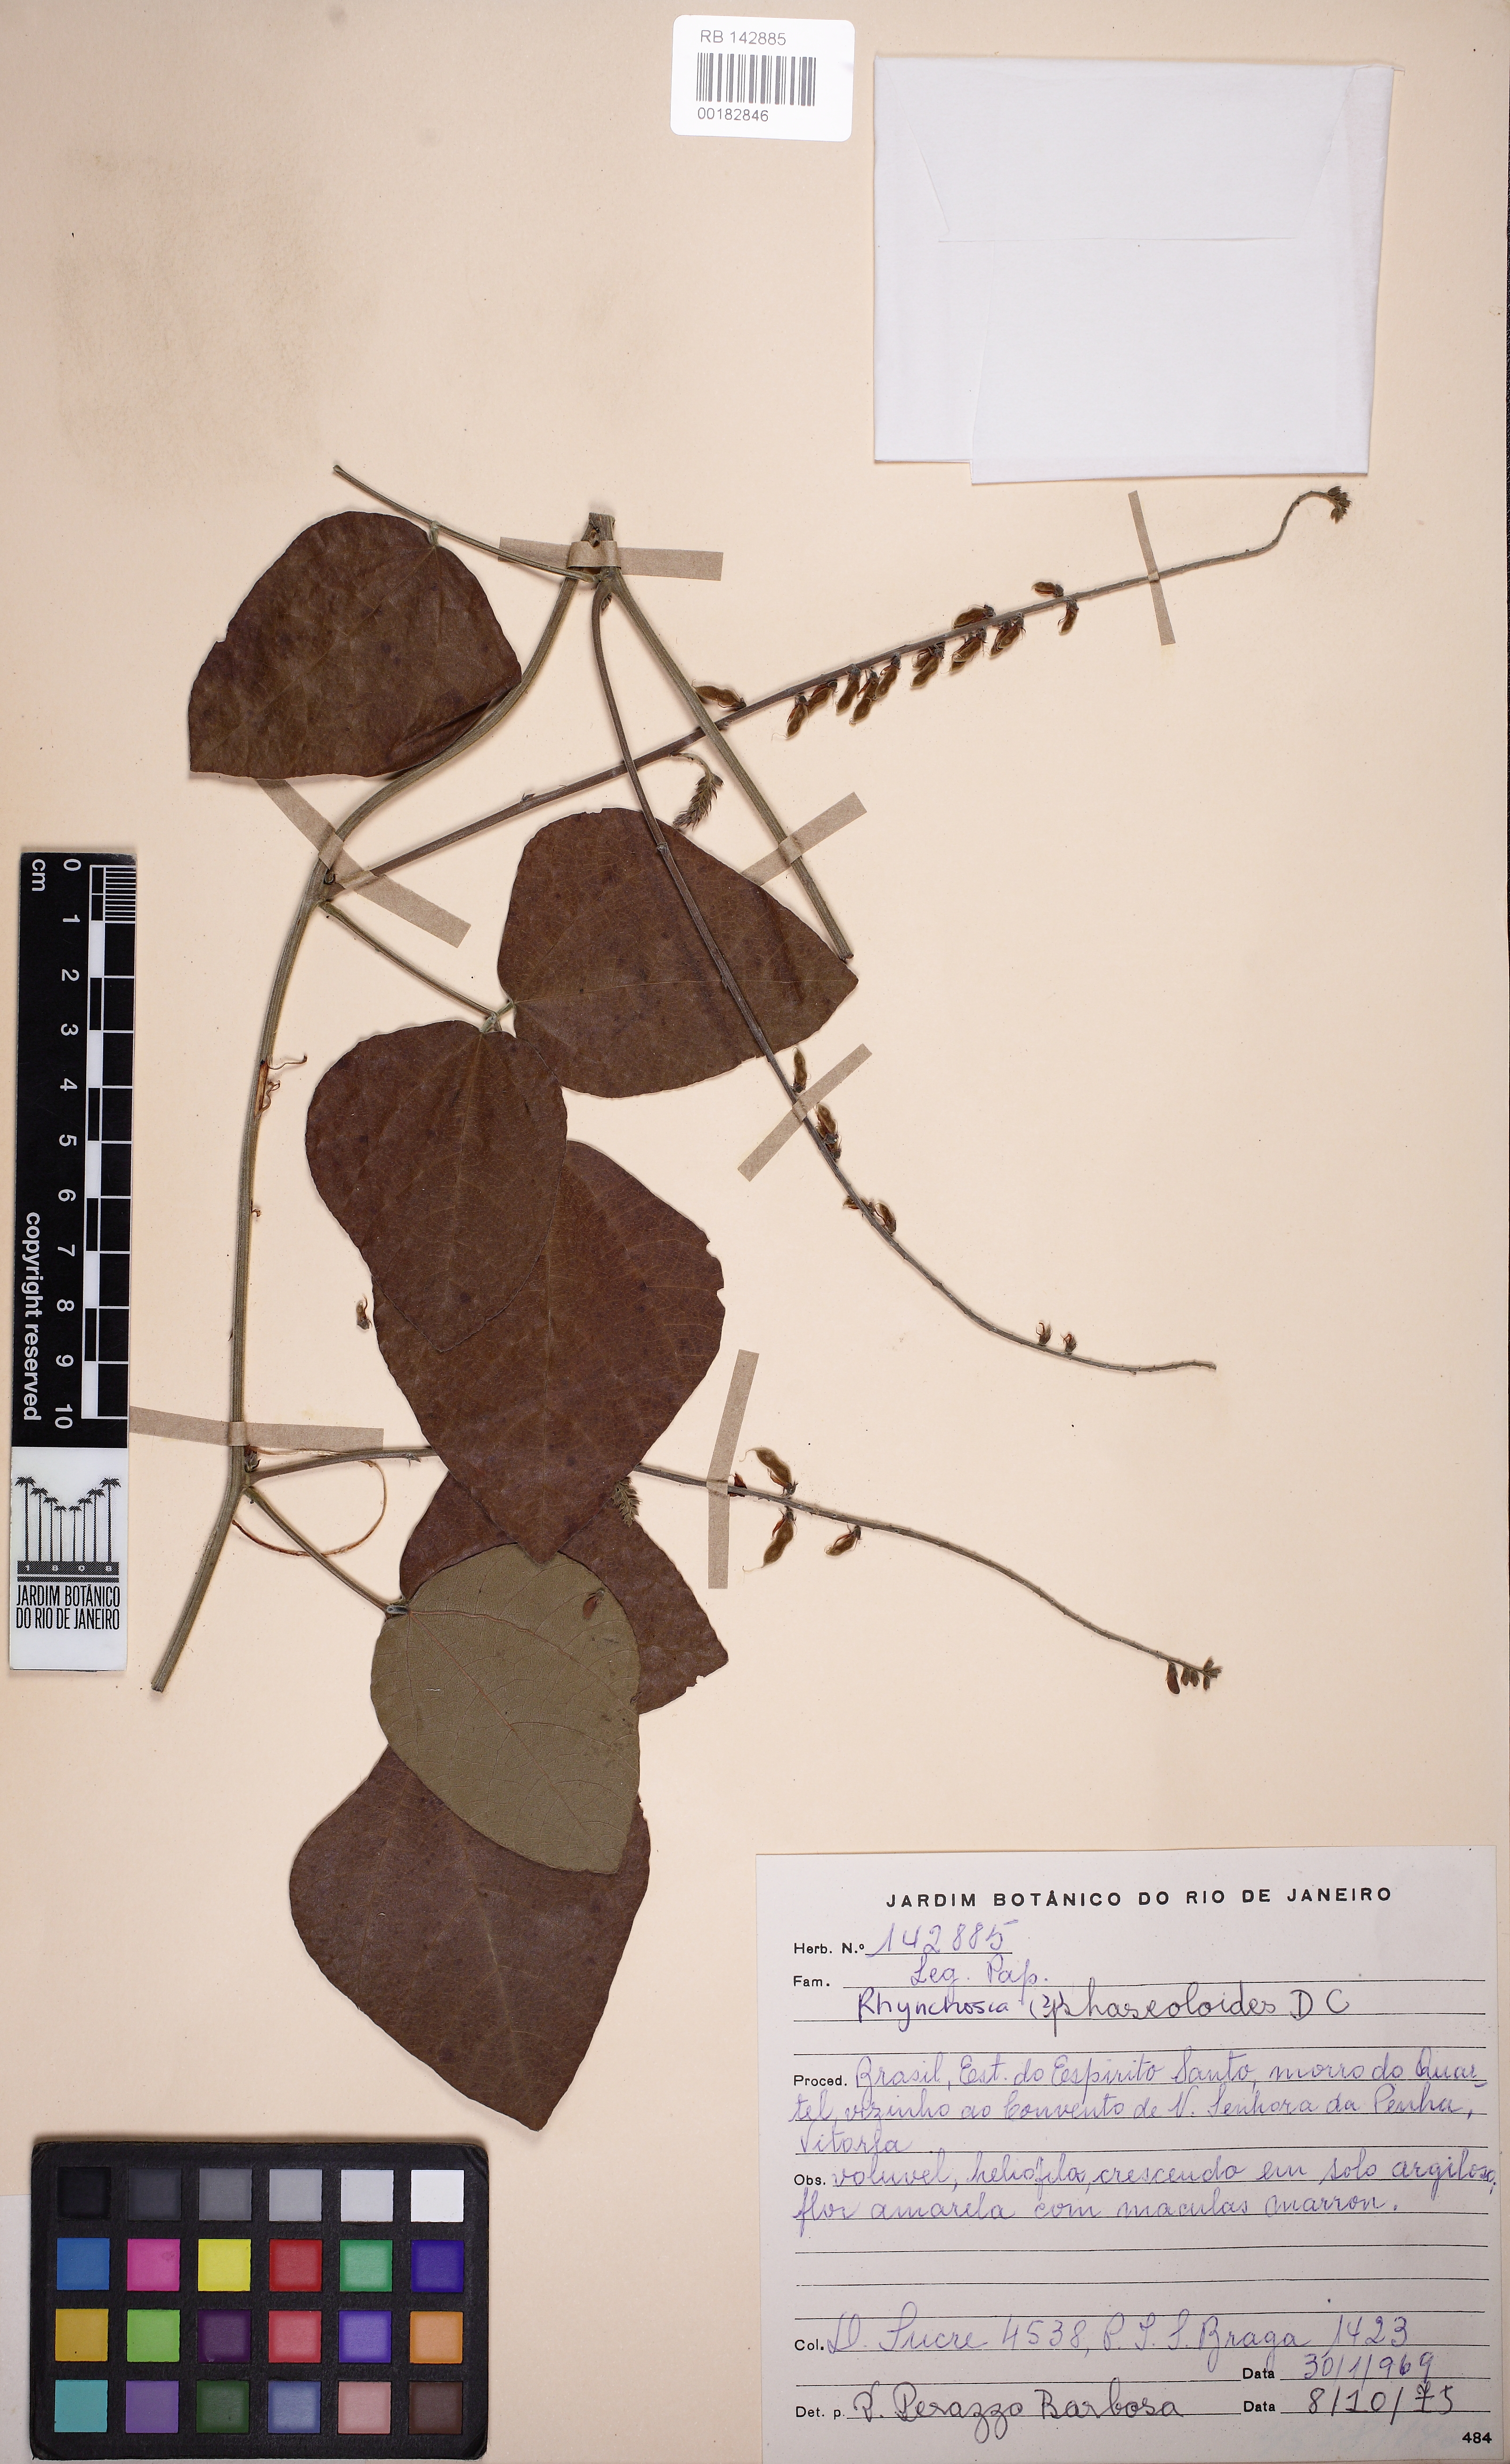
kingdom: Plantae
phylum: Tracheophyta
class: Magnoliopsida
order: Fabales
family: Fabaceae
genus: Rhynchosia
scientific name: Rhynchosia phaseoloides
